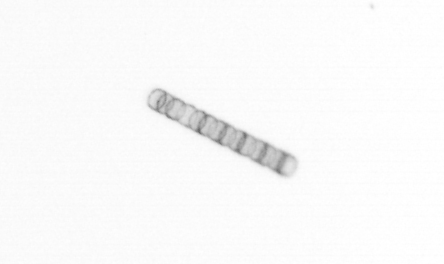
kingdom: Chromista
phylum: Ochrophyta
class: Bacillariophyceae
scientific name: Bacillariophyceae
